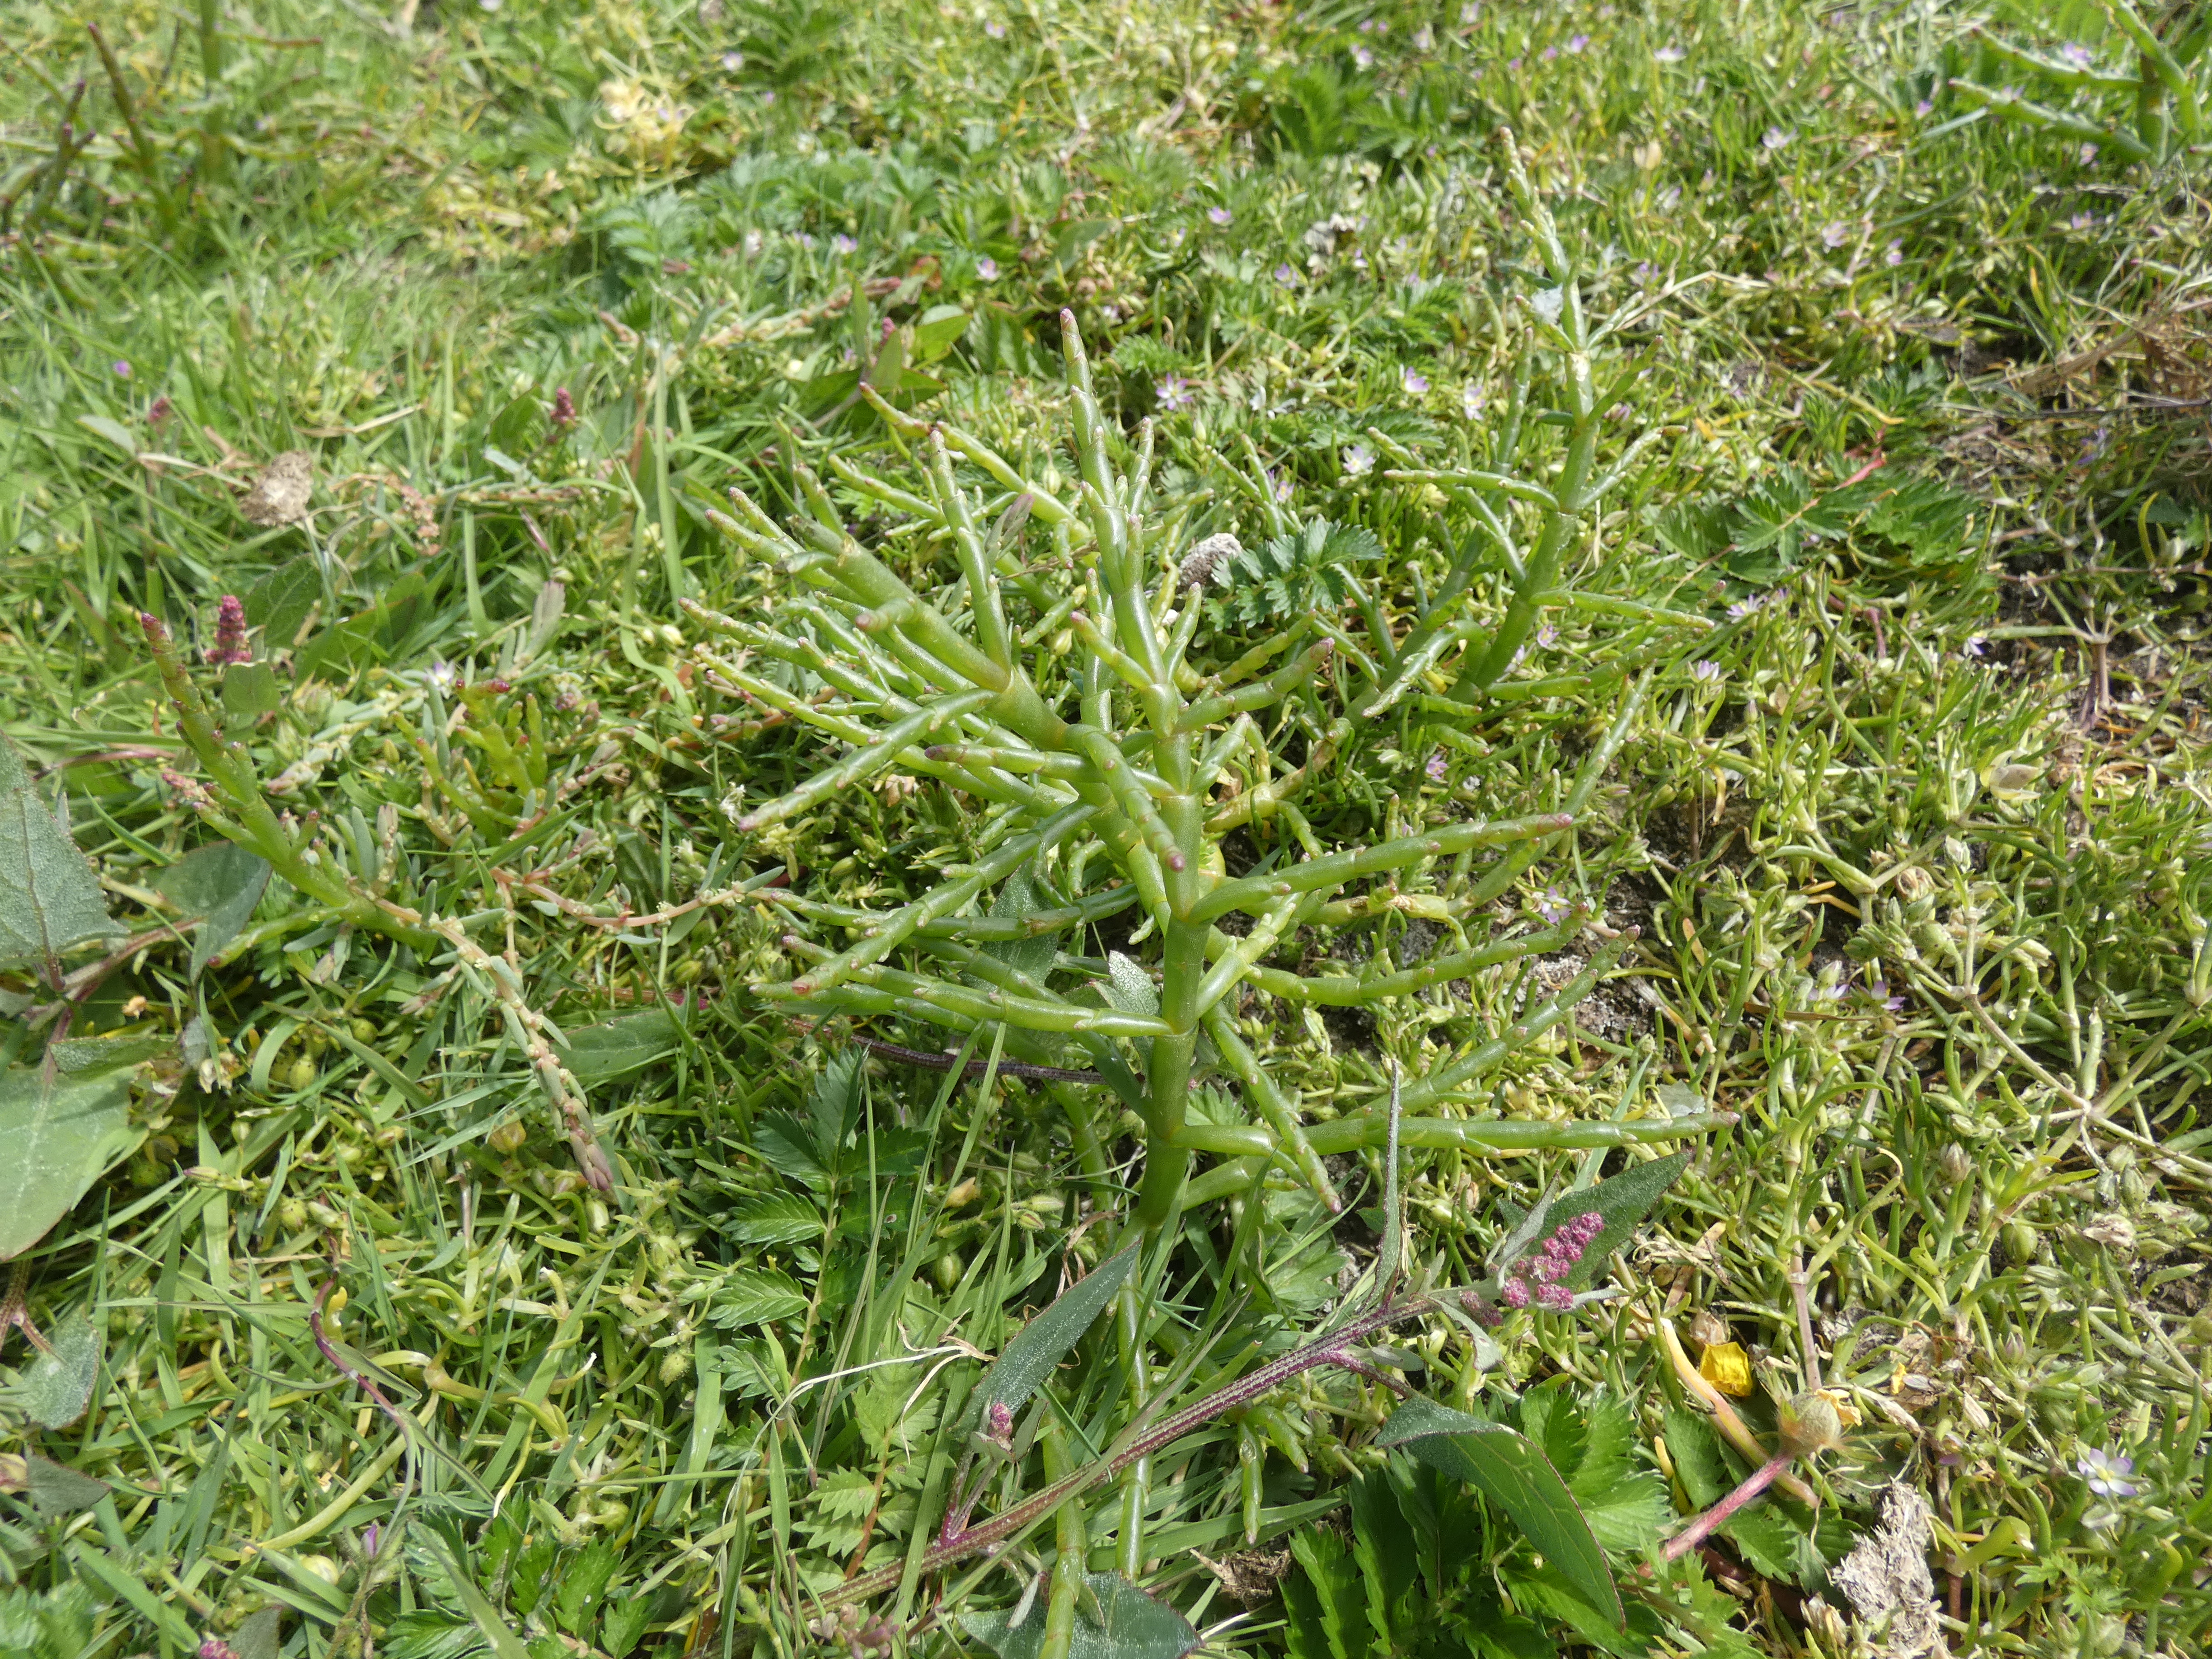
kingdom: Plantae
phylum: Tracheophyta
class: Magnoliopsida
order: Caryophyllales
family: Amaranthaceae
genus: Salicornia
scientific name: Salicornia europaea
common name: Almindelig salturt
